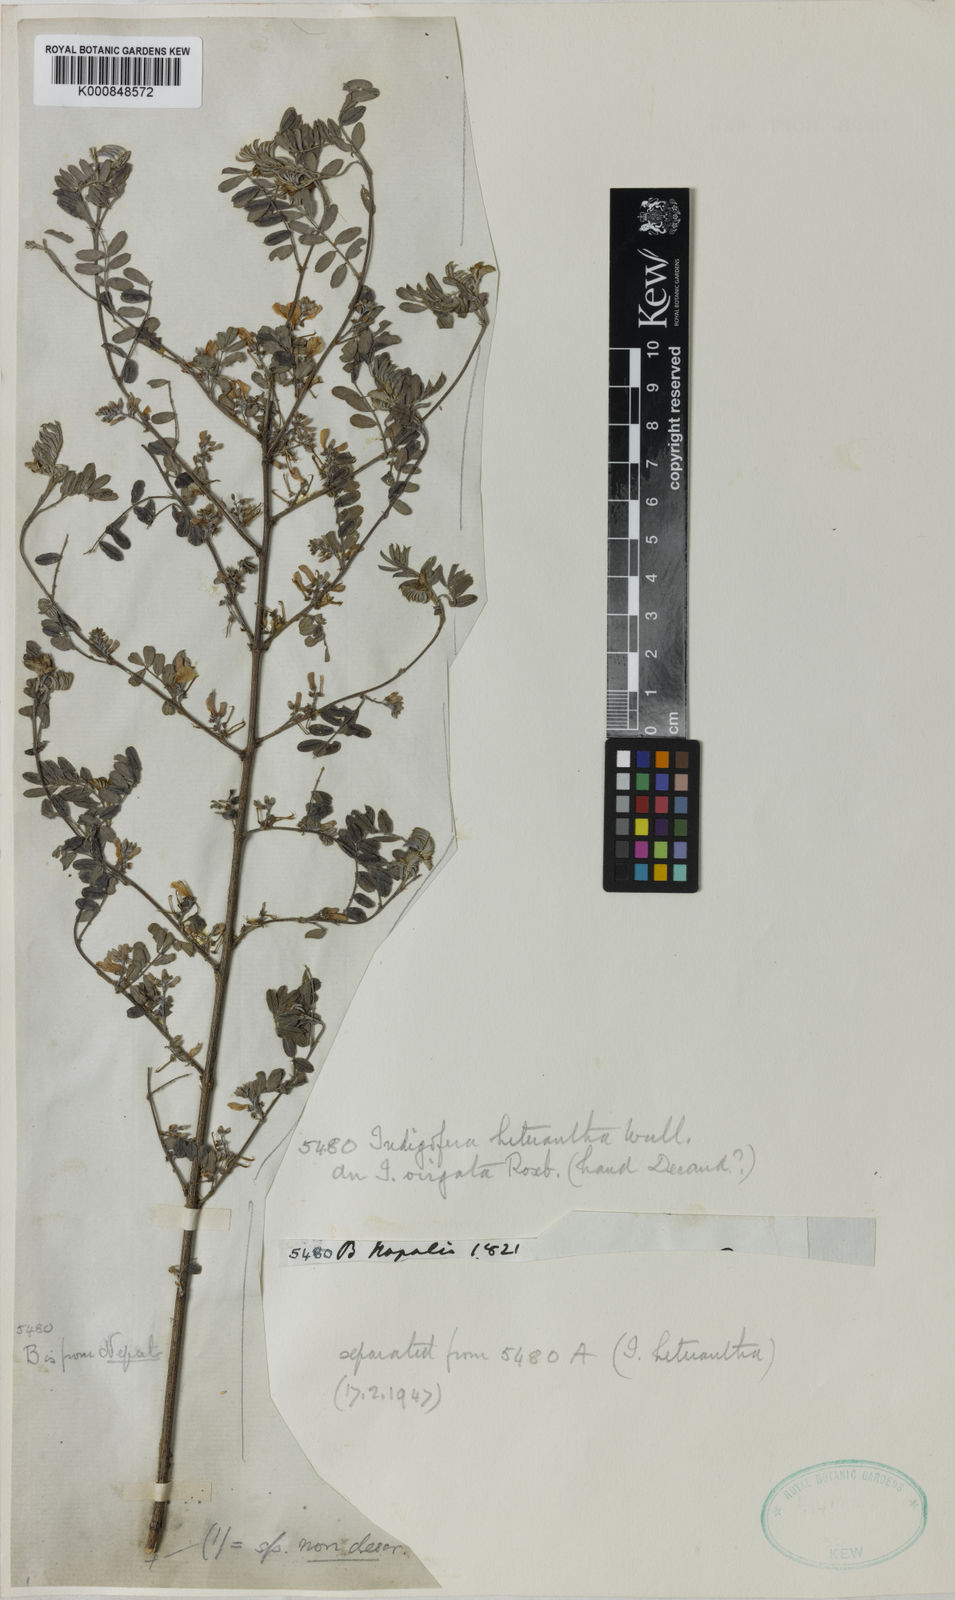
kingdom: Plantae
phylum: Tracheophyta
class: Magnoliopsida
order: Fabales
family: Fabaceae
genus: Indigofera
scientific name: Indigofera trigonelloides
